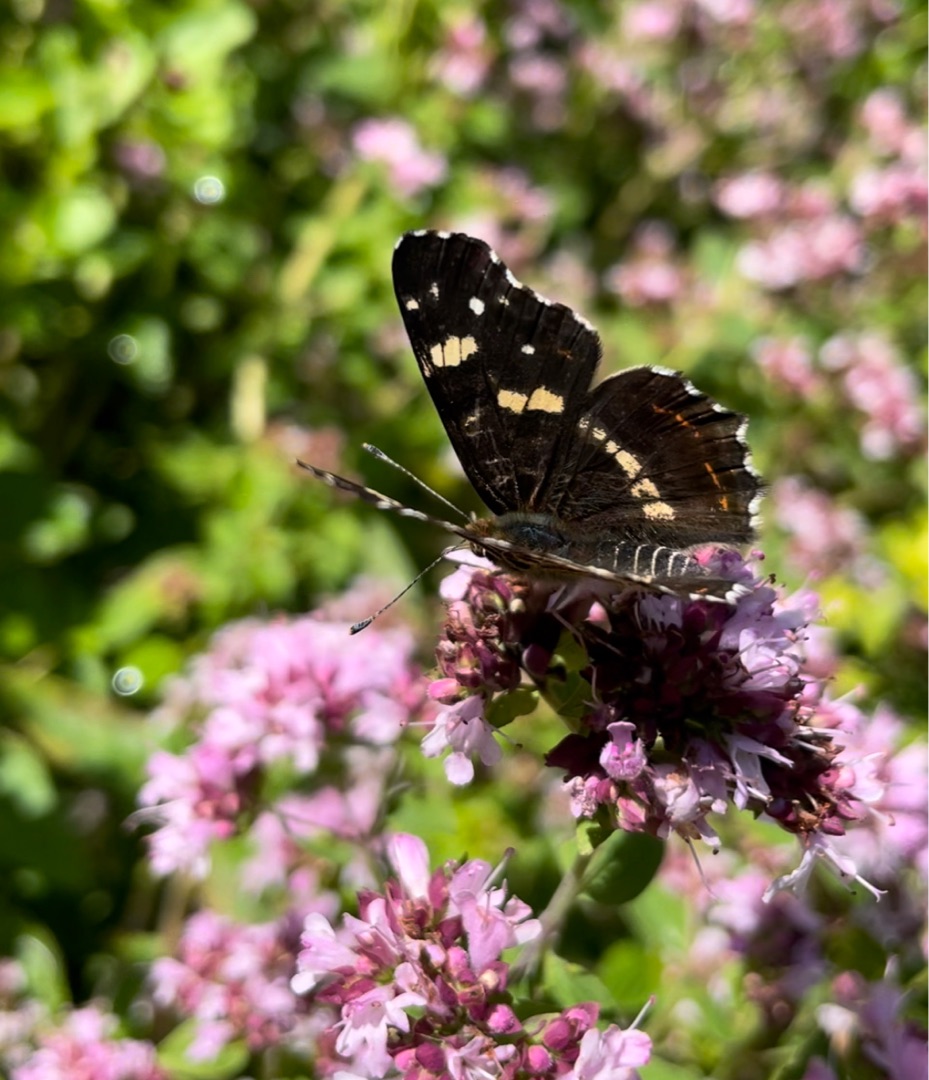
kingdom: Animalia
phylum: Arthropoda
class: Insecta
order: Lepidoptera
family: Nymphalidae
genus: Araschnia
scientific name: Araschnia levana
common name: Nældesommerfugl
